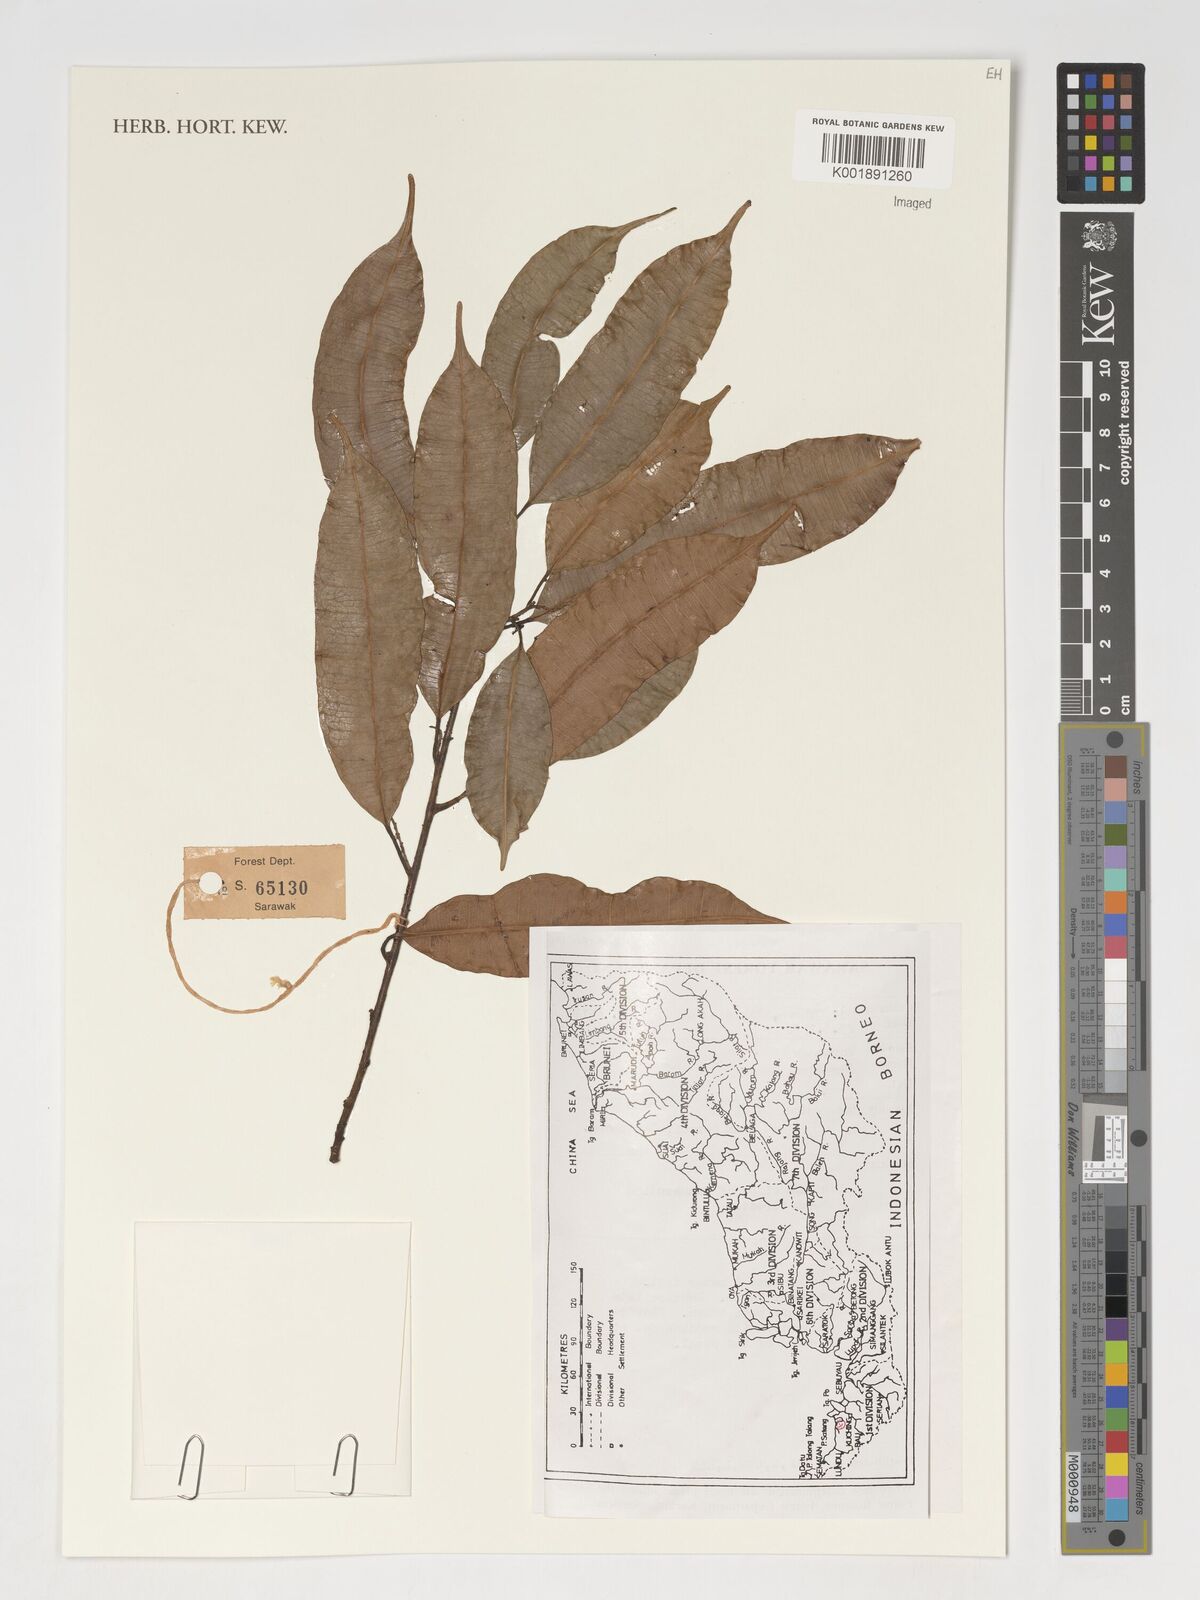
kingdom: Plantae
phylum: Tracheophyta
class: Magnoliopsida
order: Rosales
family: Moraceae
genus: Paratrophis
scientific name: Paratrophis glabra
